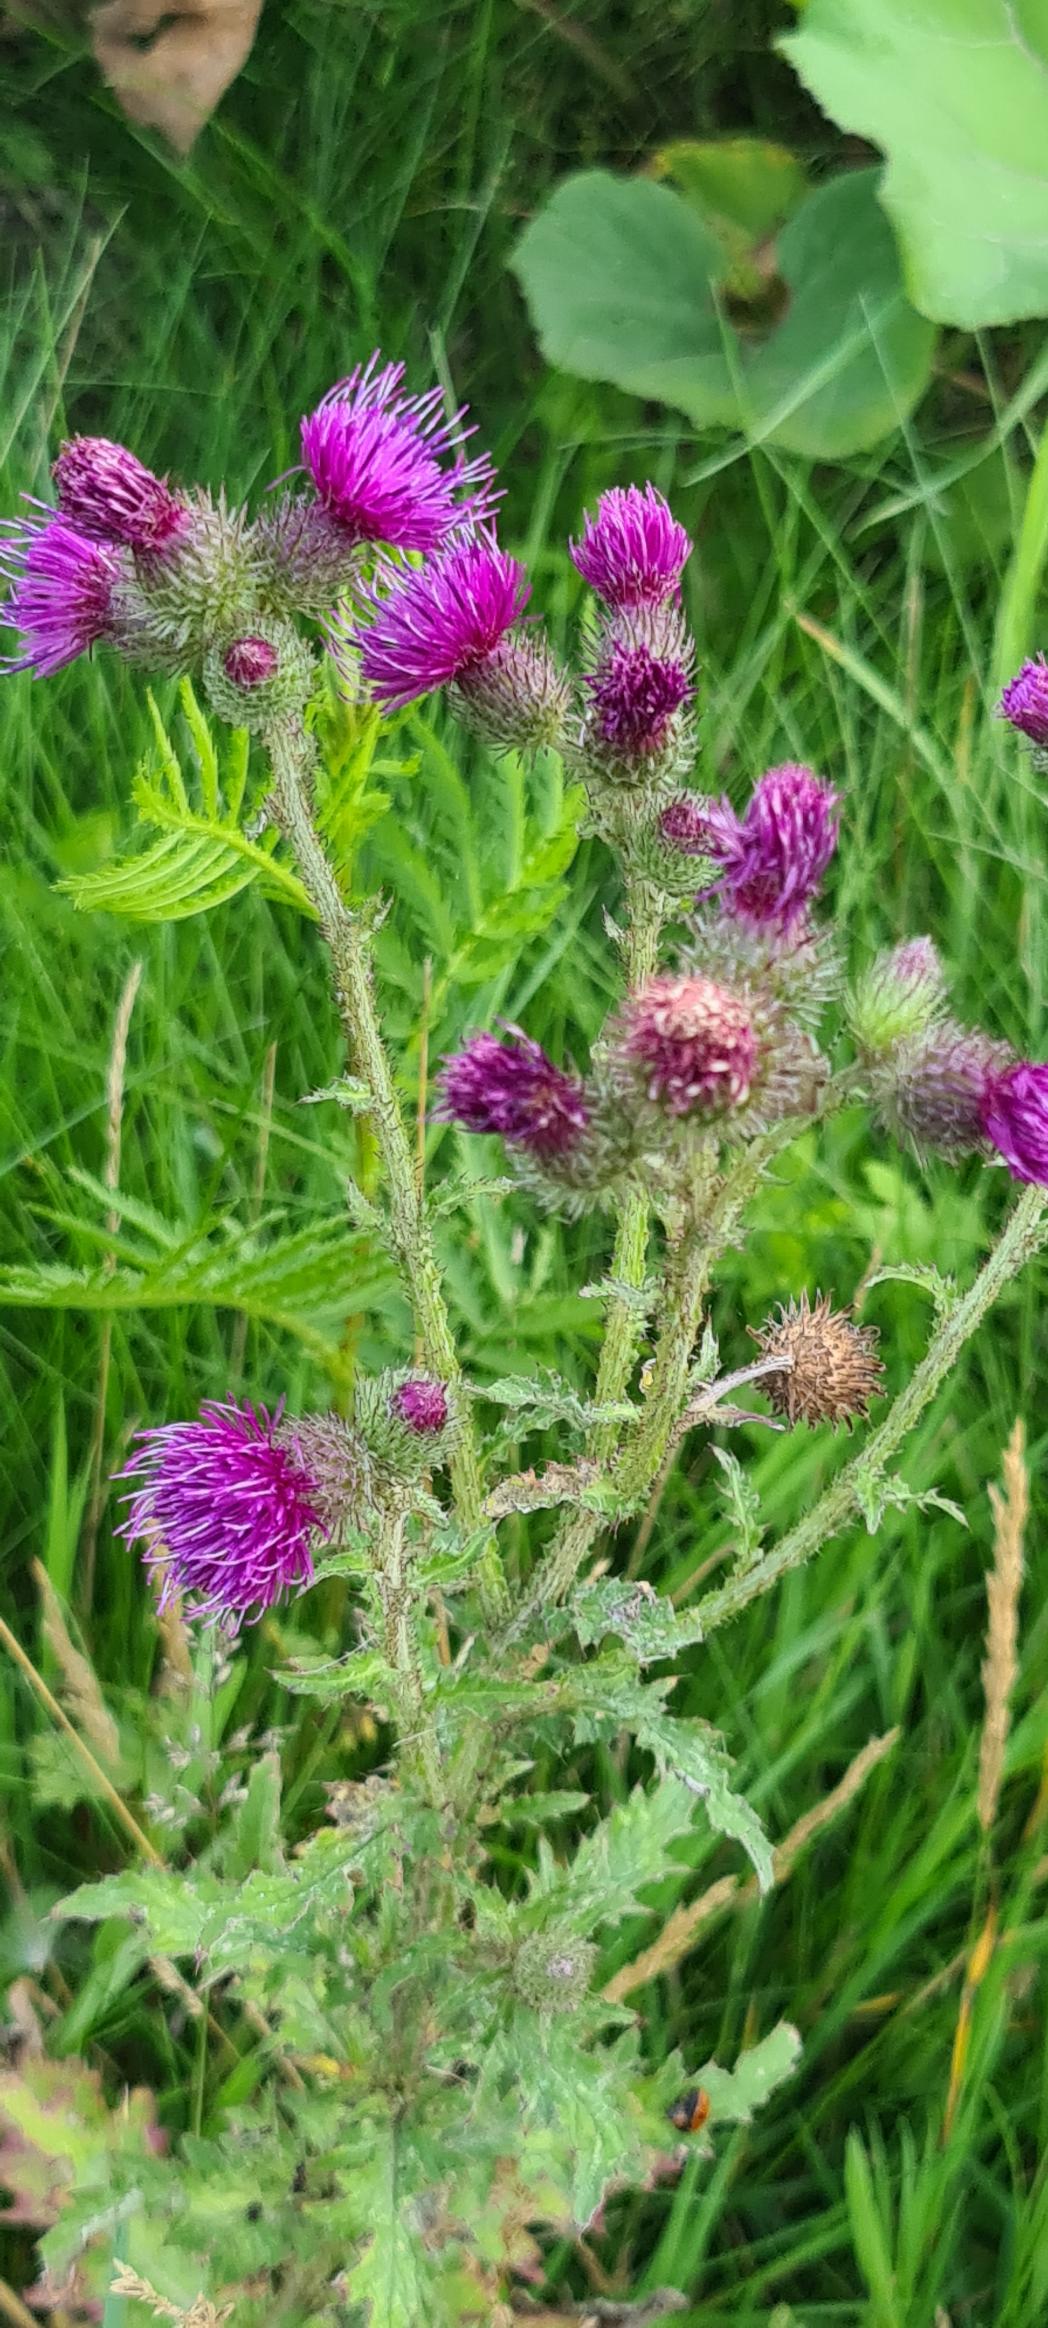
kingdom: Plantae
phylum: Tracheophyta
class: Magnoliopsida
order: Asterales
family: Asteraceae
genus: Carduus
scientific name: Carduus crispus
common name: Kruset tidsel
